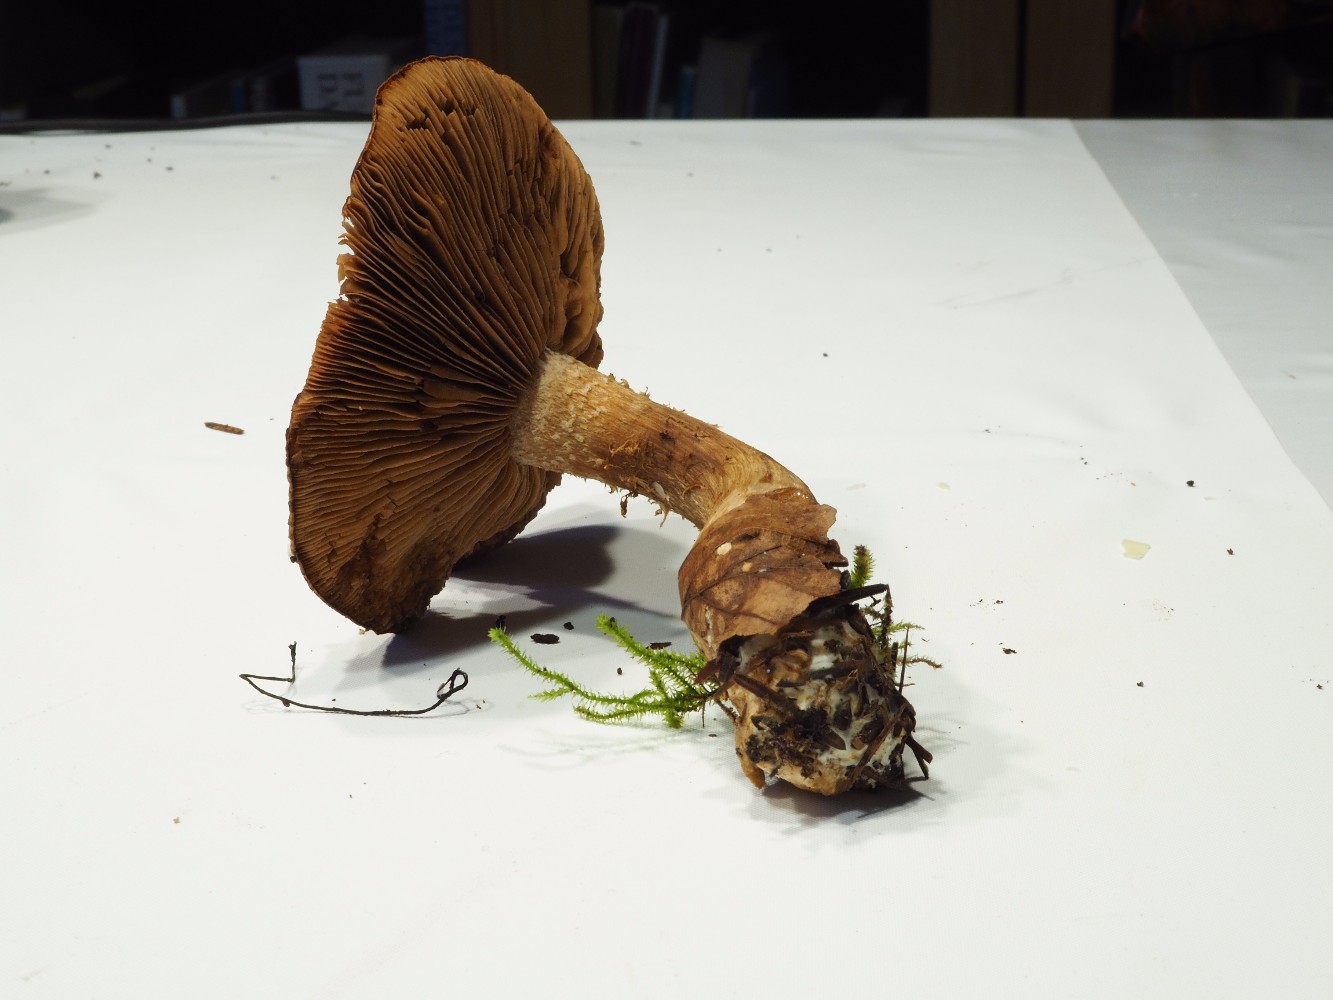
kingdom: Fungi
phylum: Basidiomycota
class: Agaricomycetes
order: Agaricales
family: Hymenogastraceae
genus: Hebeloma
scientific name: Hebeloma laterinum
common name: kakao-tåreblad
